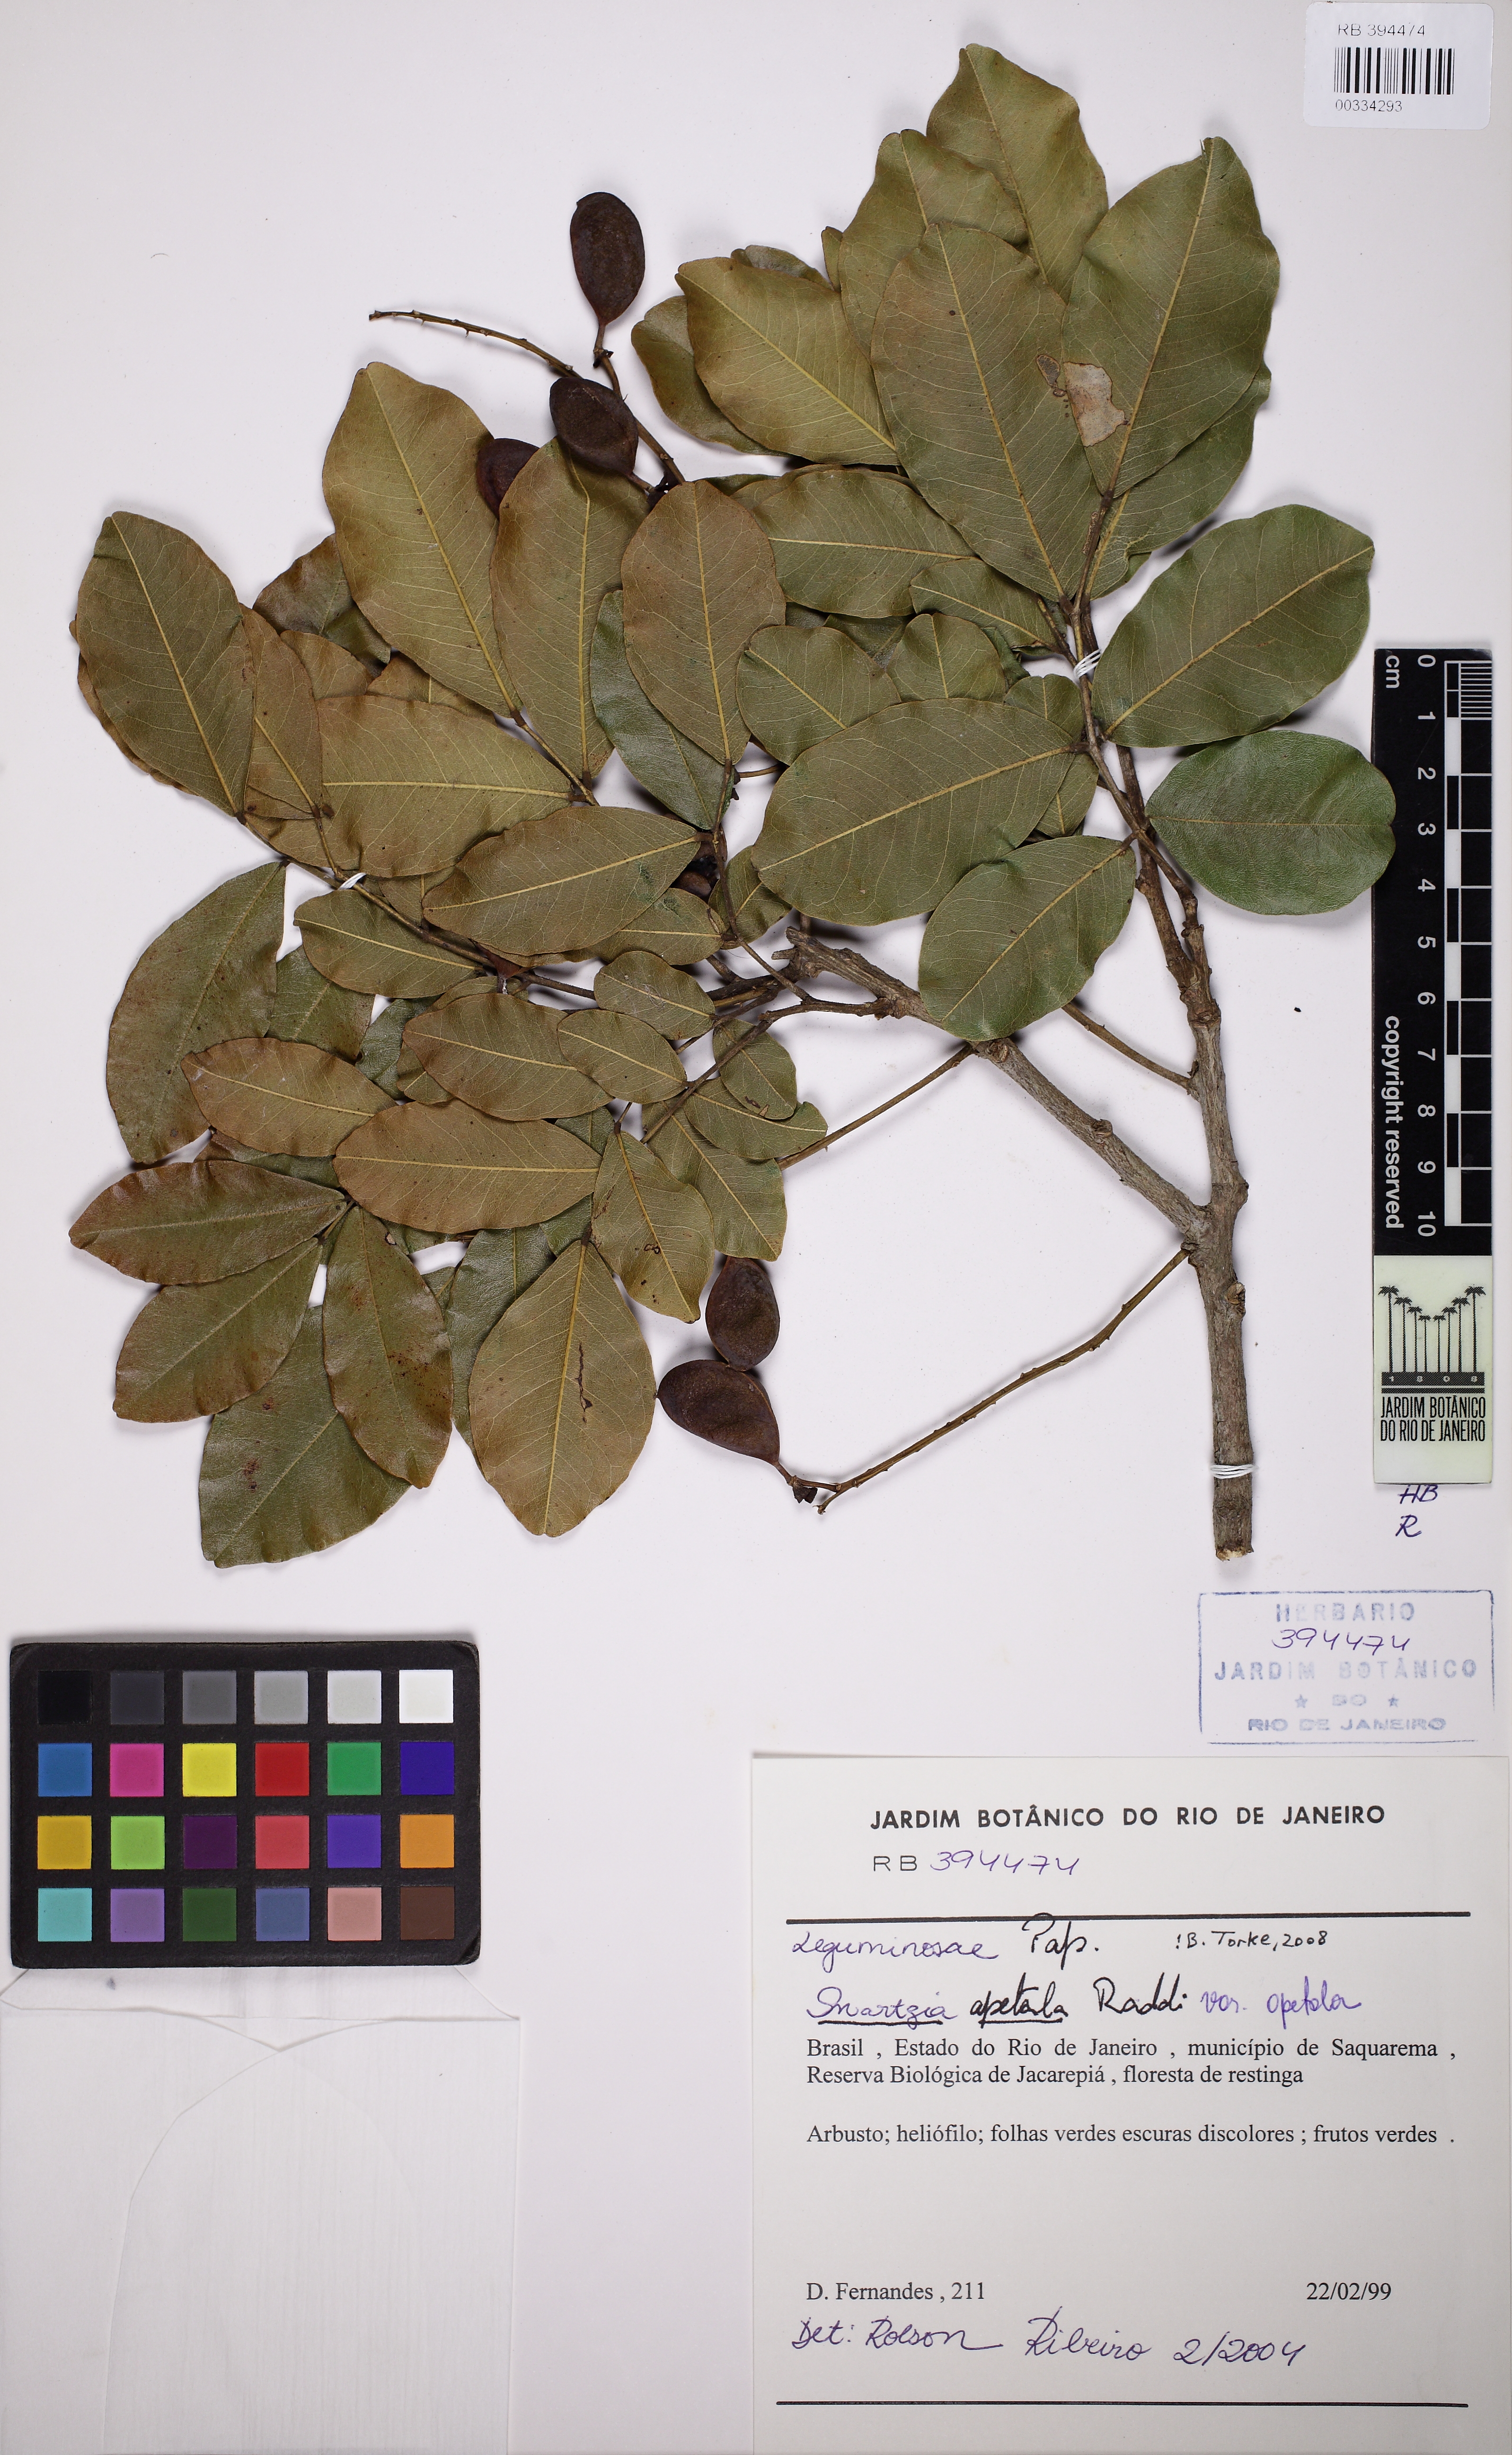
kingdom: Plantae
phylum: Tracheophyta
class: Magnoliopsida
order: Fabales
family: Fabaceae
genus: Swartzia
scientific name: Swartzia apetala
